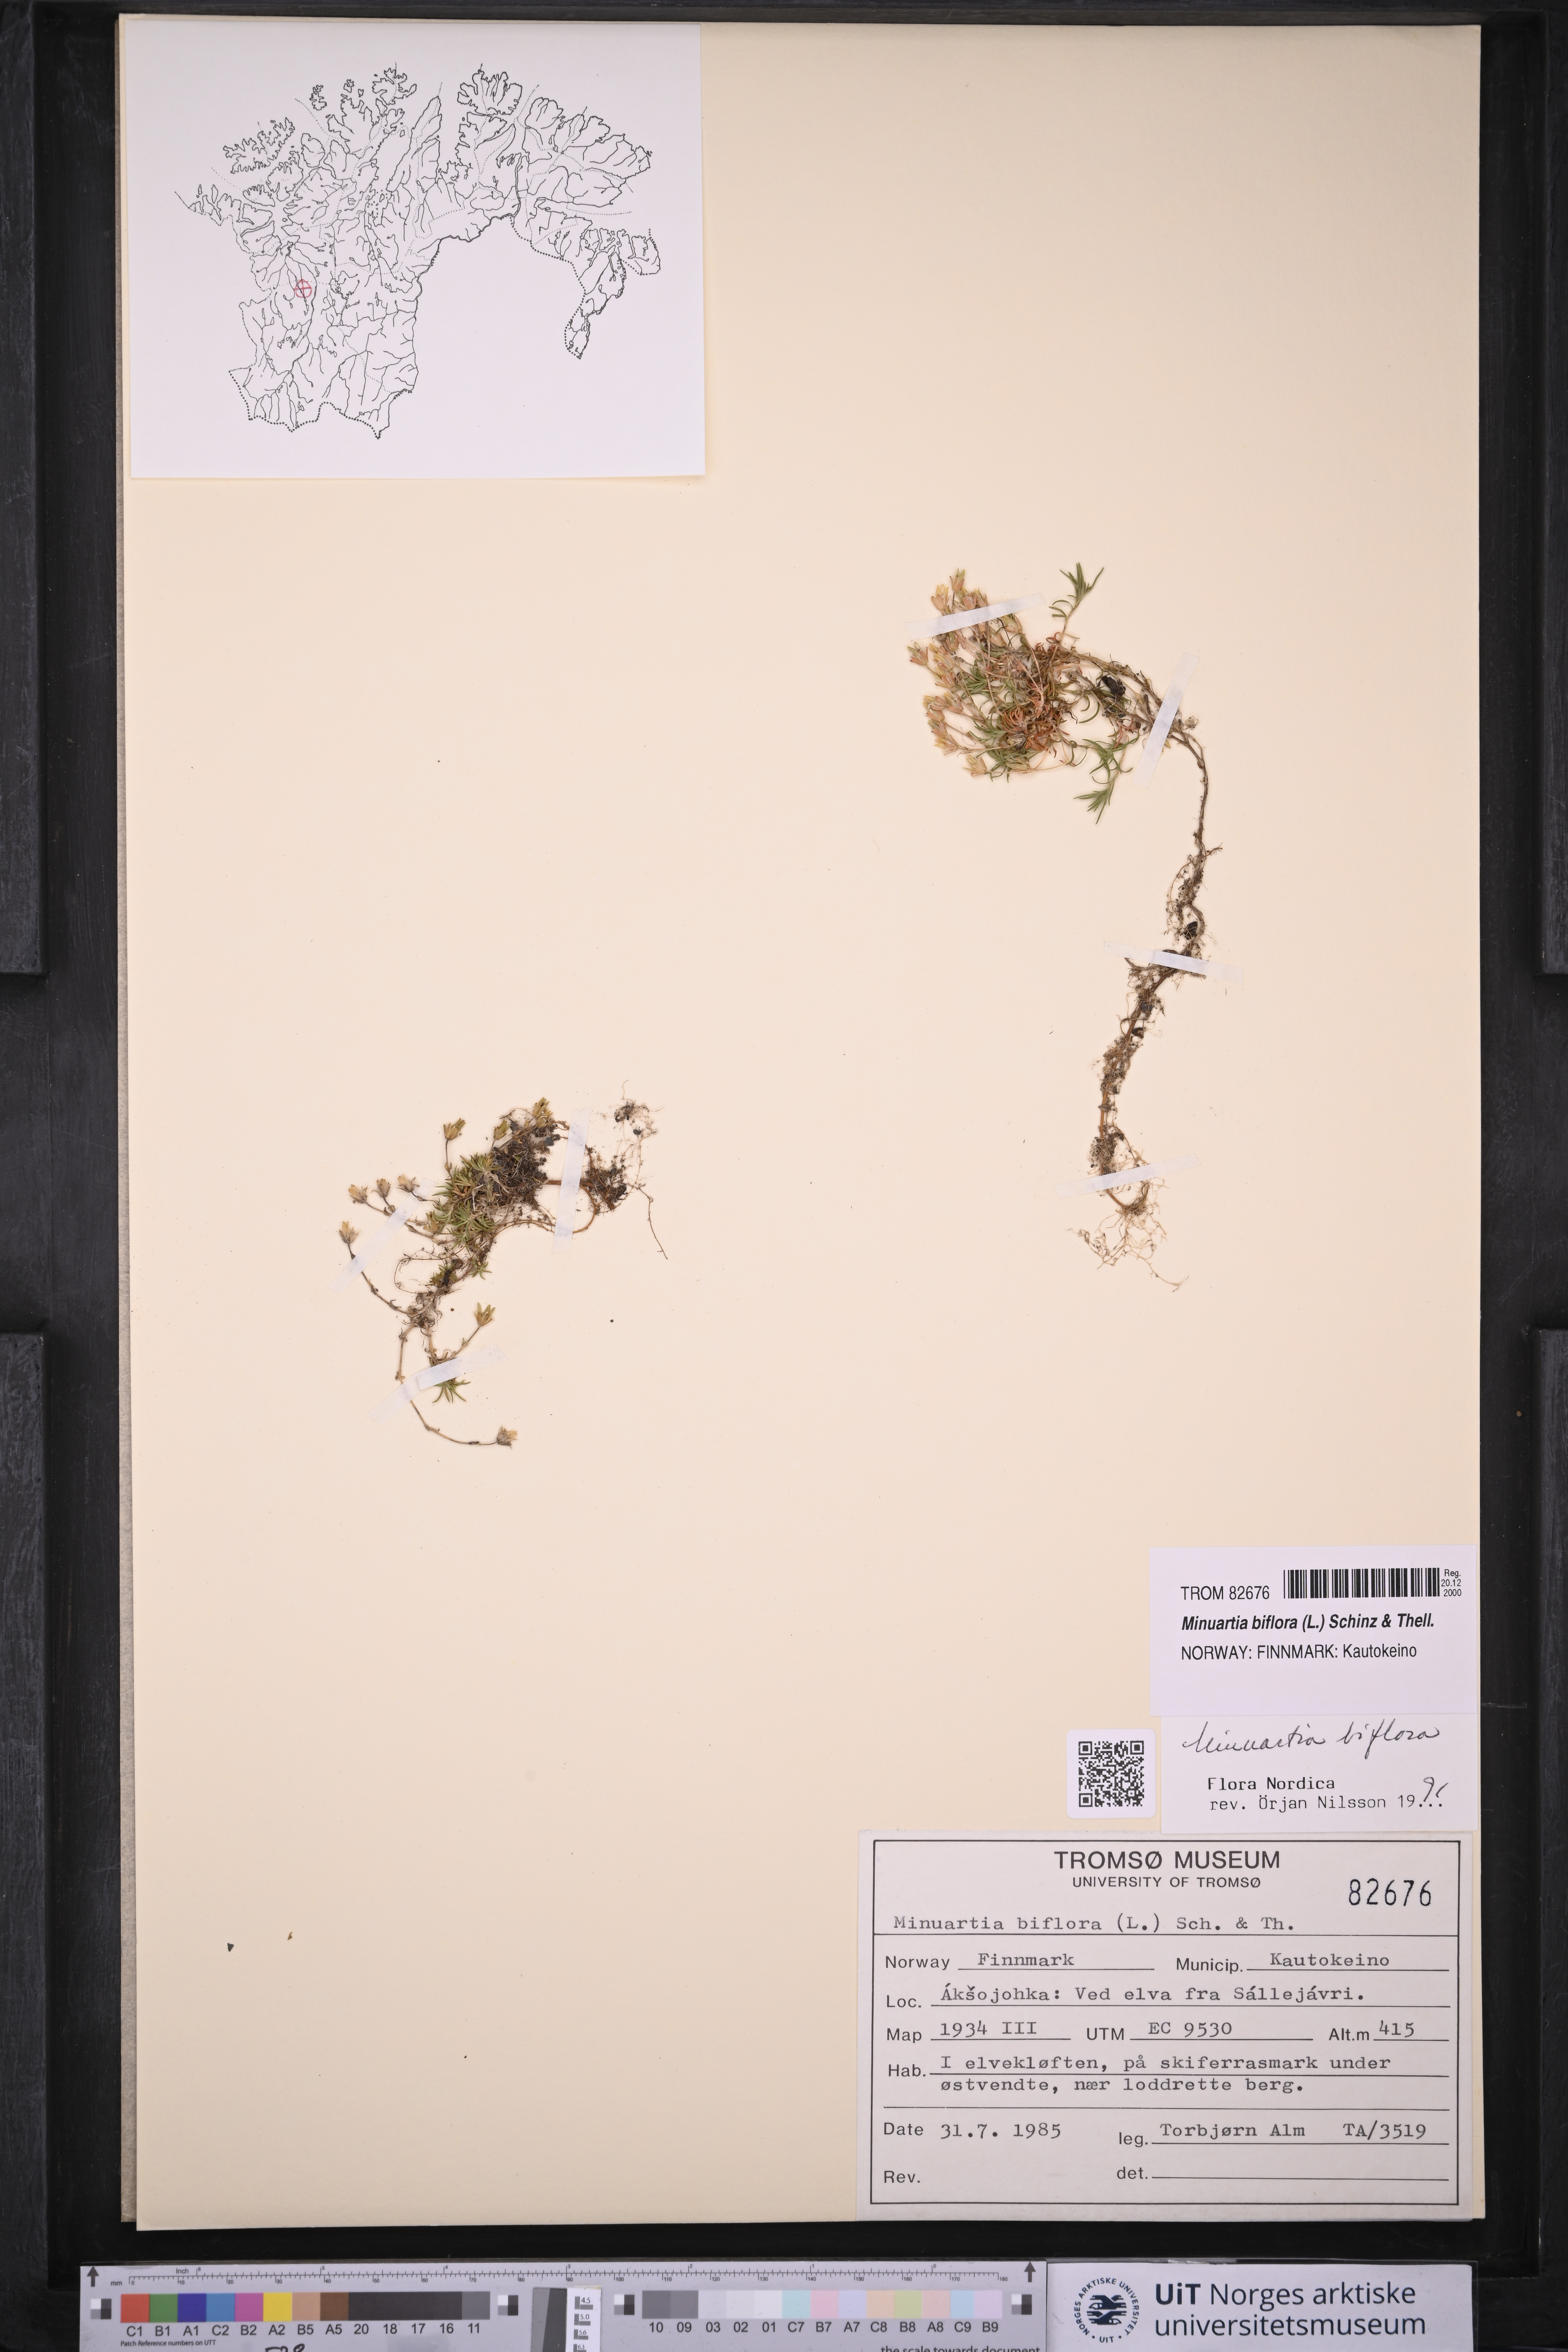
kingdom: Plantae
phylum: Tracheophyta
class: Magnoliopsida
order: Caryophyllales
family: Caryophyllaceae
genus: Cherleria
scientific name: Cherleria biflora
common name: Mountain sandwort
